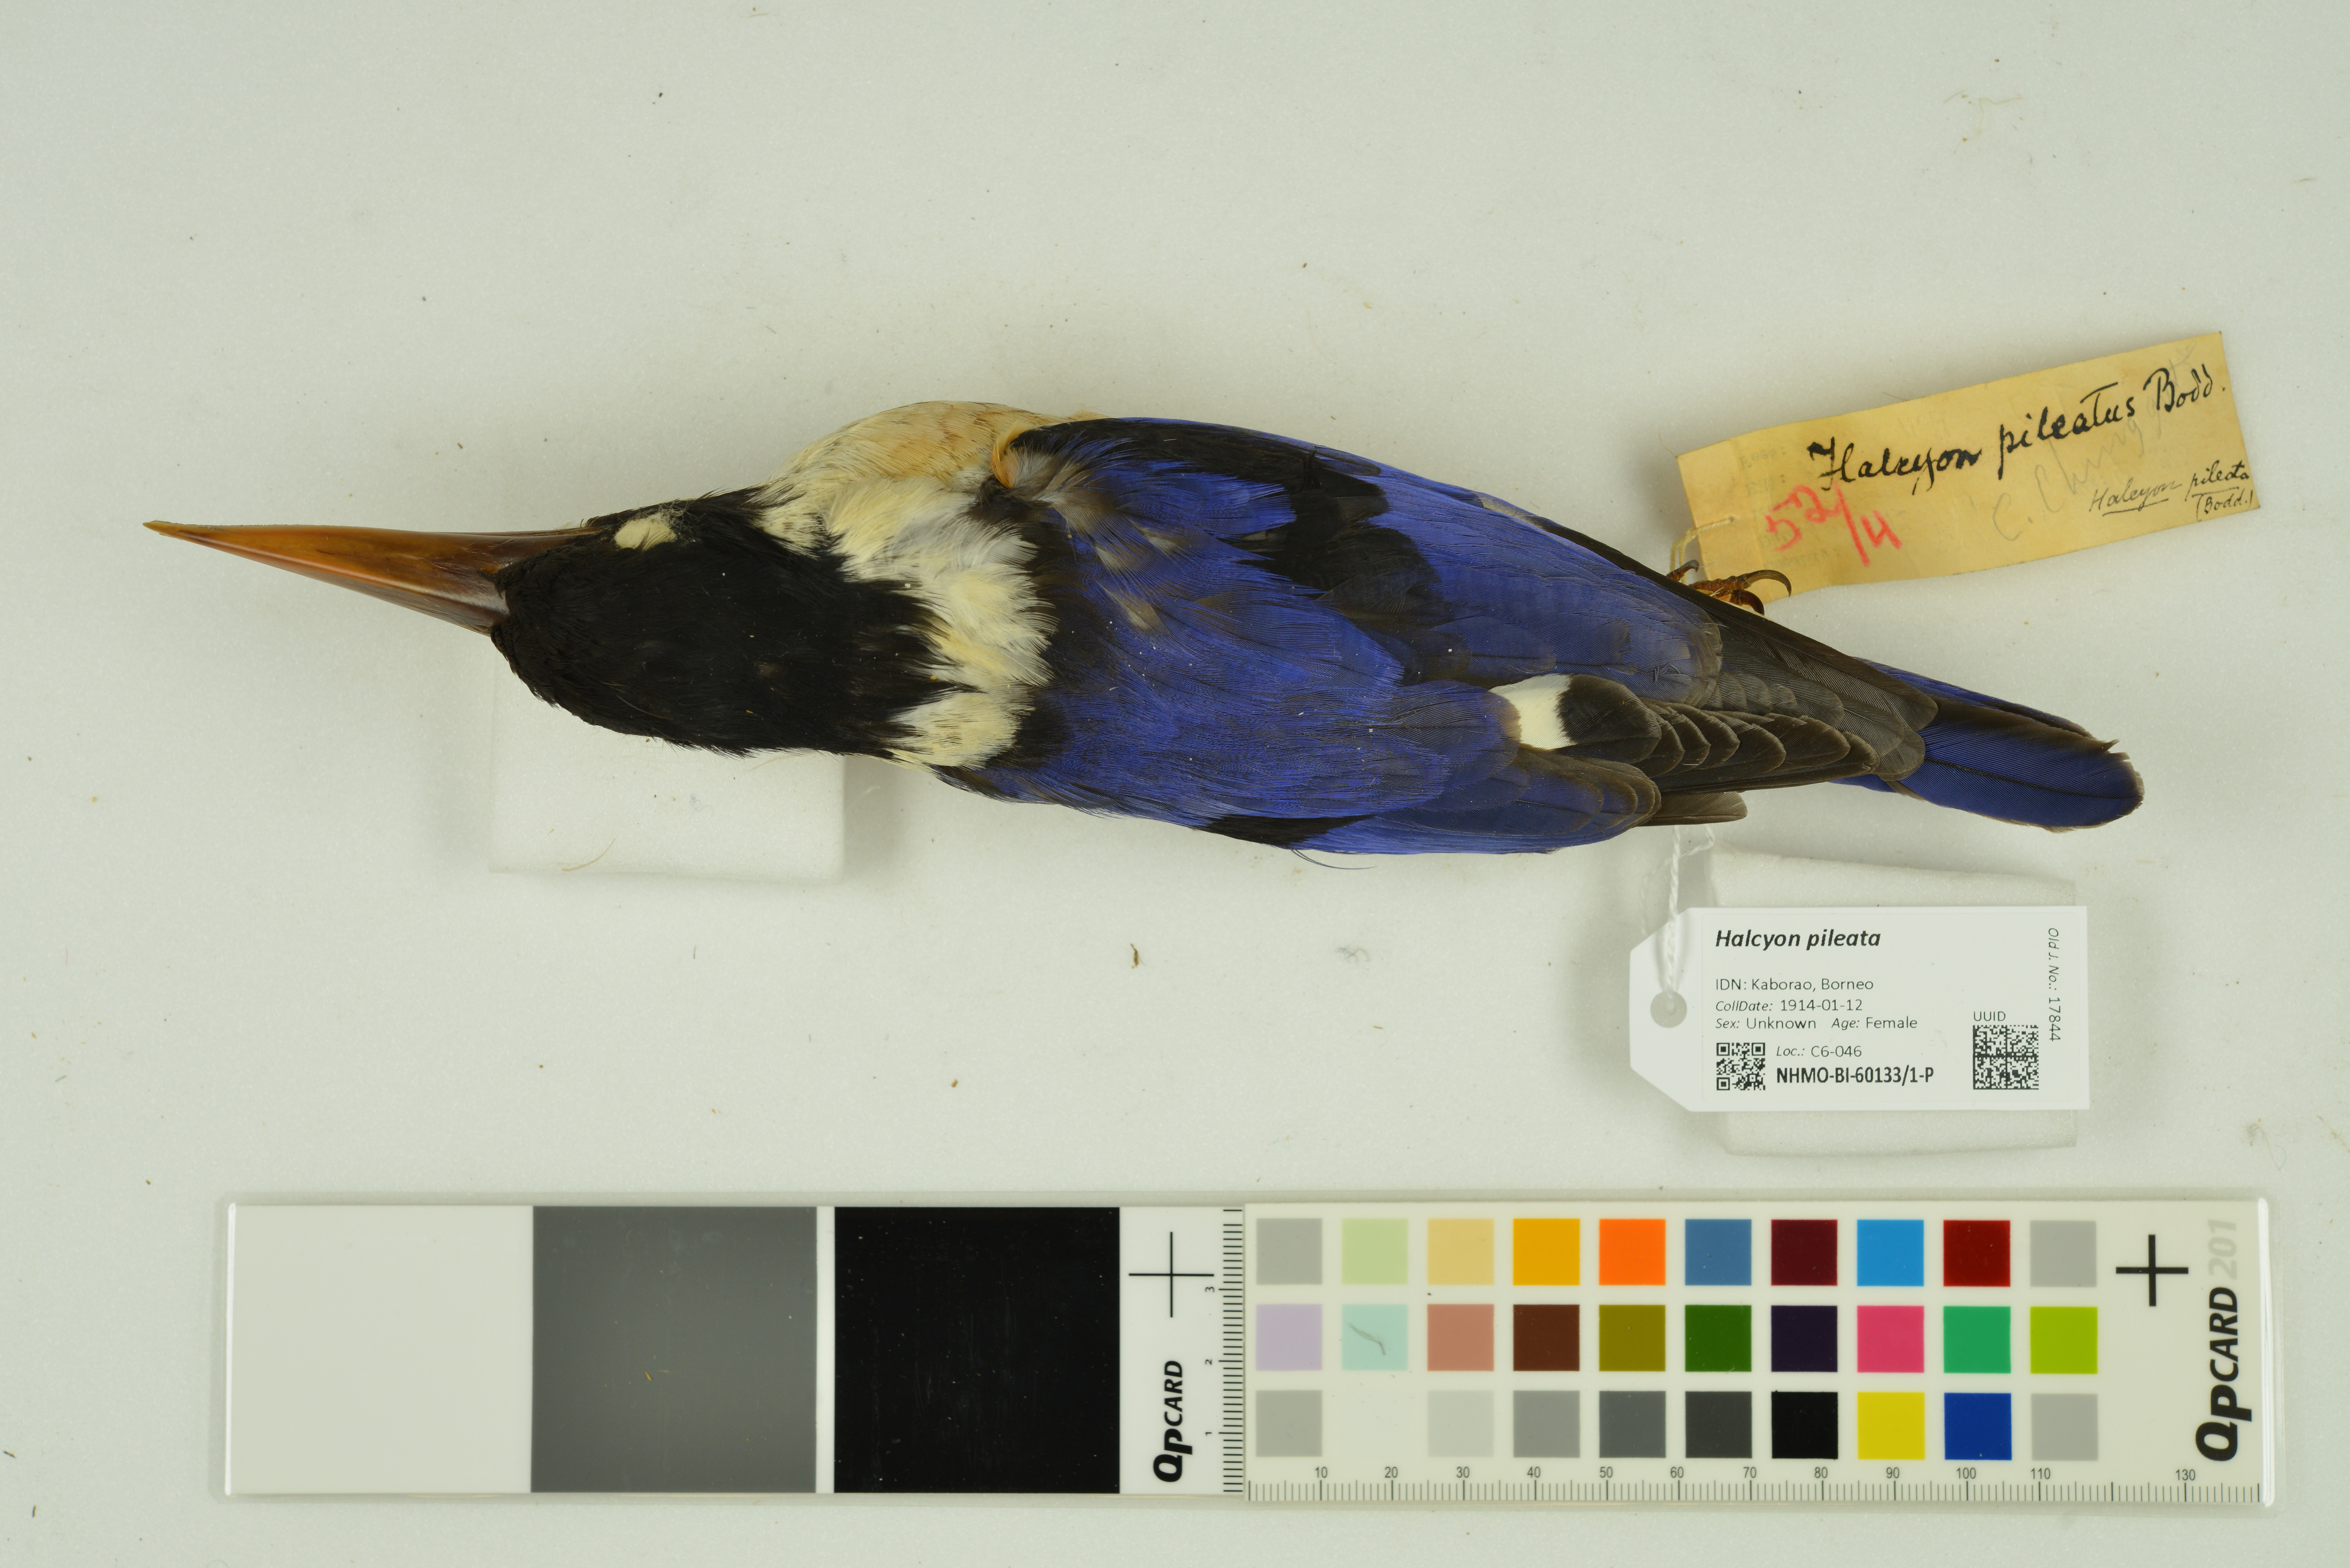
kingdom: Animalia
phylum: Chordata
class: Aves
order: Coraciiformes
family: Alcedinidae
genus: Halcyon
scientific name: Halcyon pileata
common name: Black-capped kingfisher
